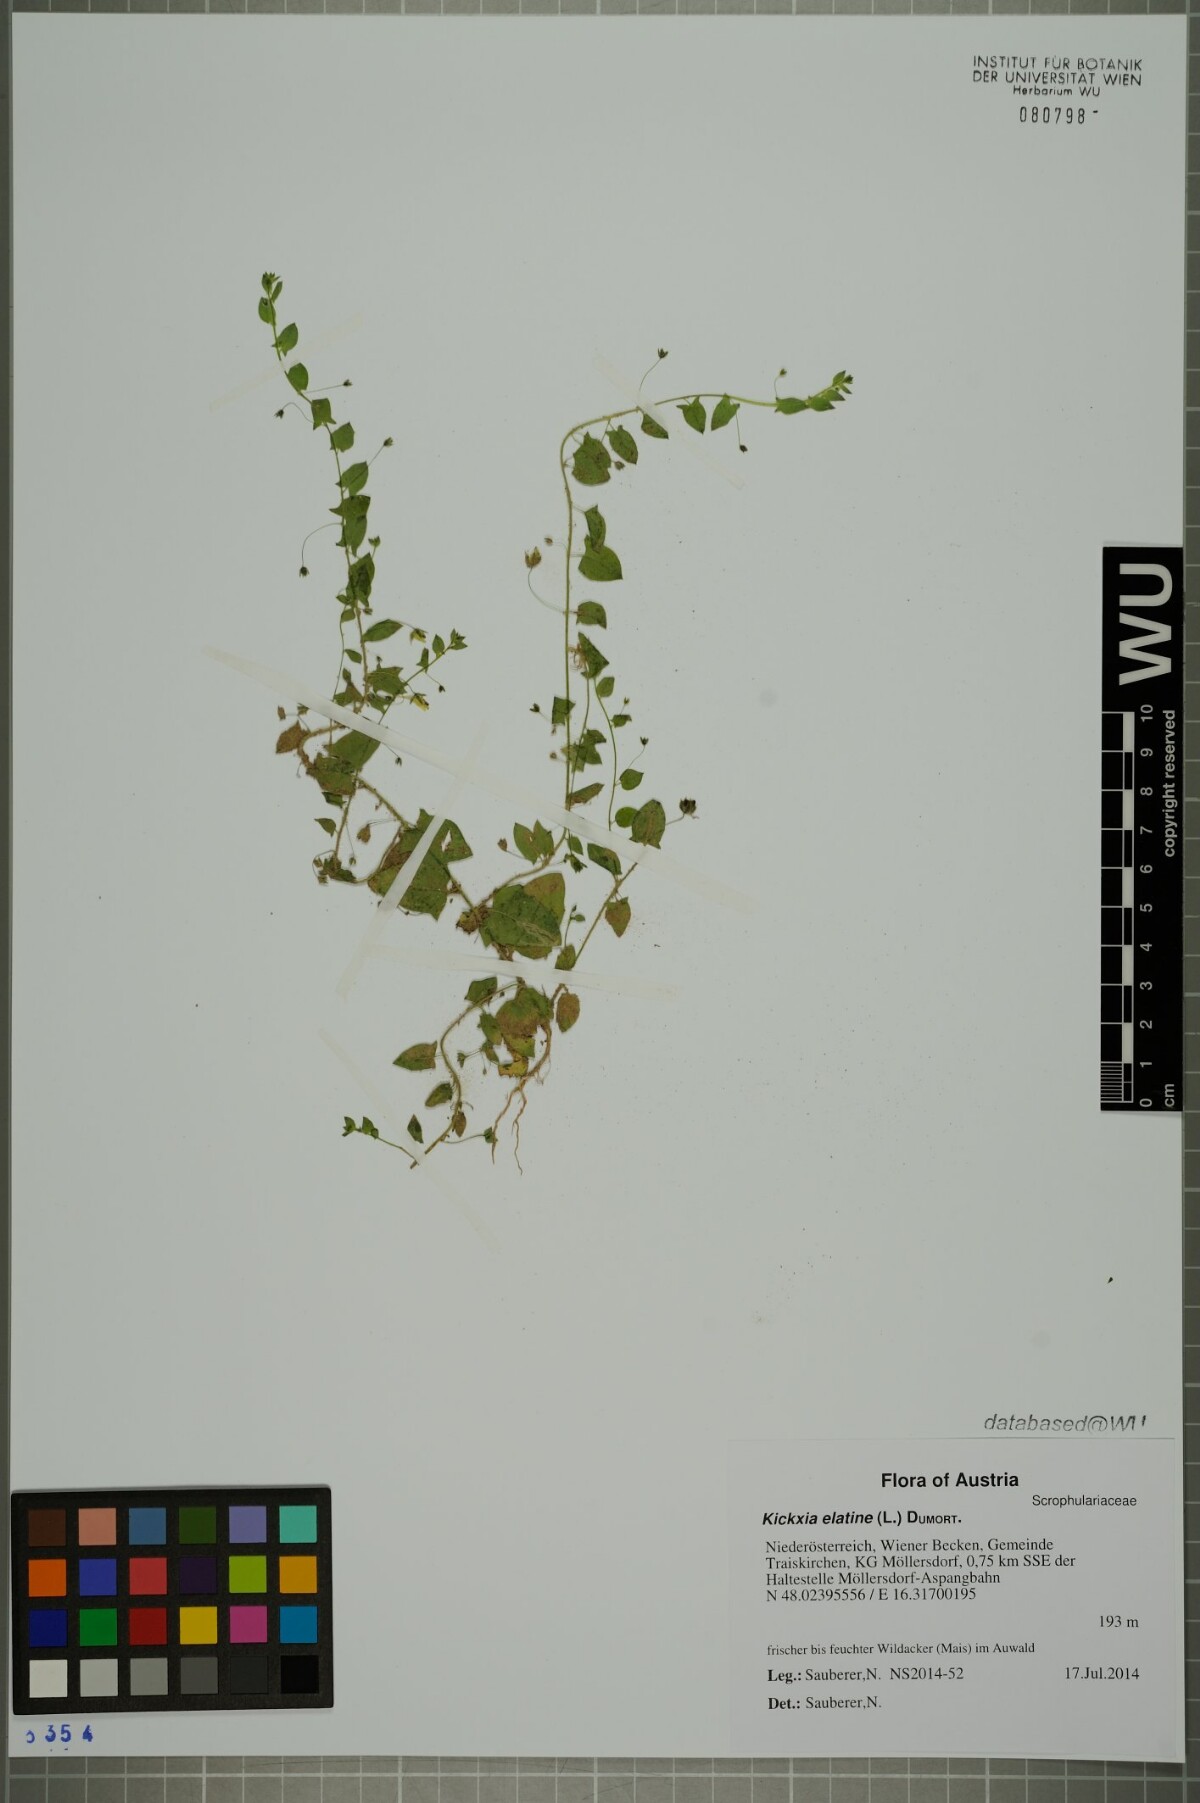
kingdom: Plantae
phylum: Tracheophyta
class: Magnoliopsida
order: Lamiales
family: Plantaginaceae
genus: Kickxia
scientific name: Kickxia elatine
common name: Sharp-leaved fluellen
